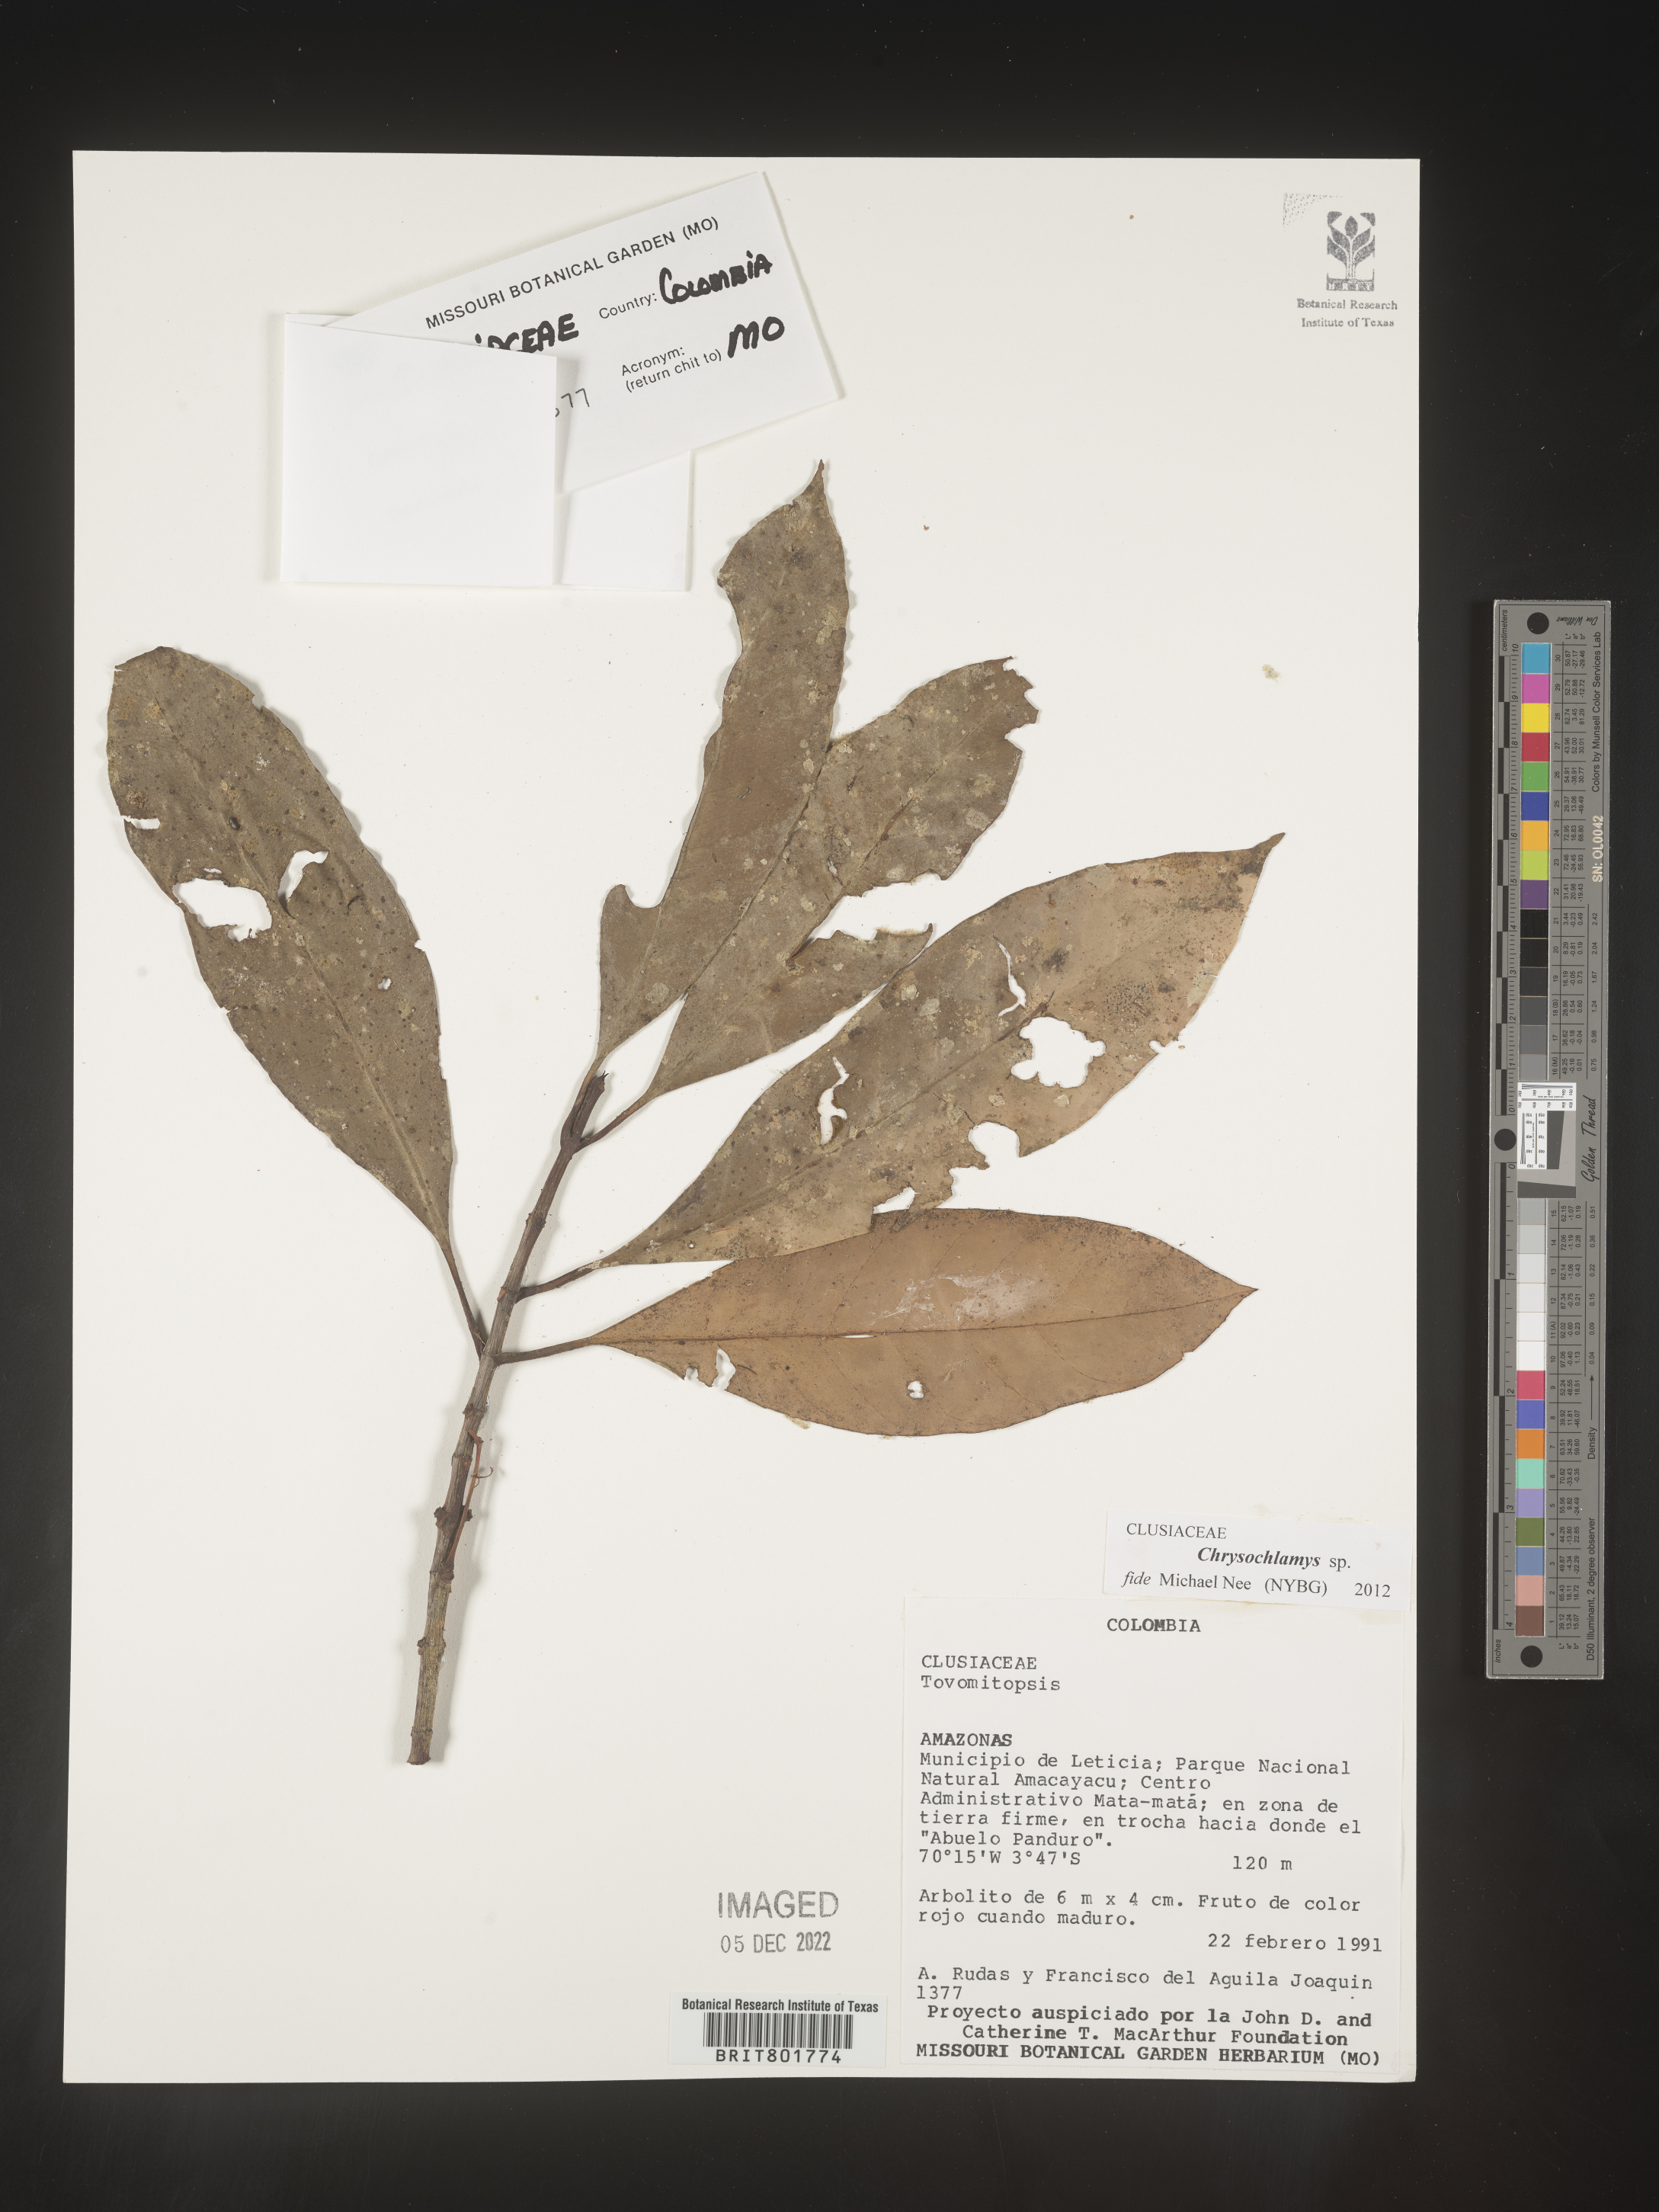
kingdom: Plantae
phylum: Tracheophyta
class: Magnoliopsida
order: Malpighiales
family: Clusiaceae
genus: Chrysochlamys
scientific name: Chrysochlamys
